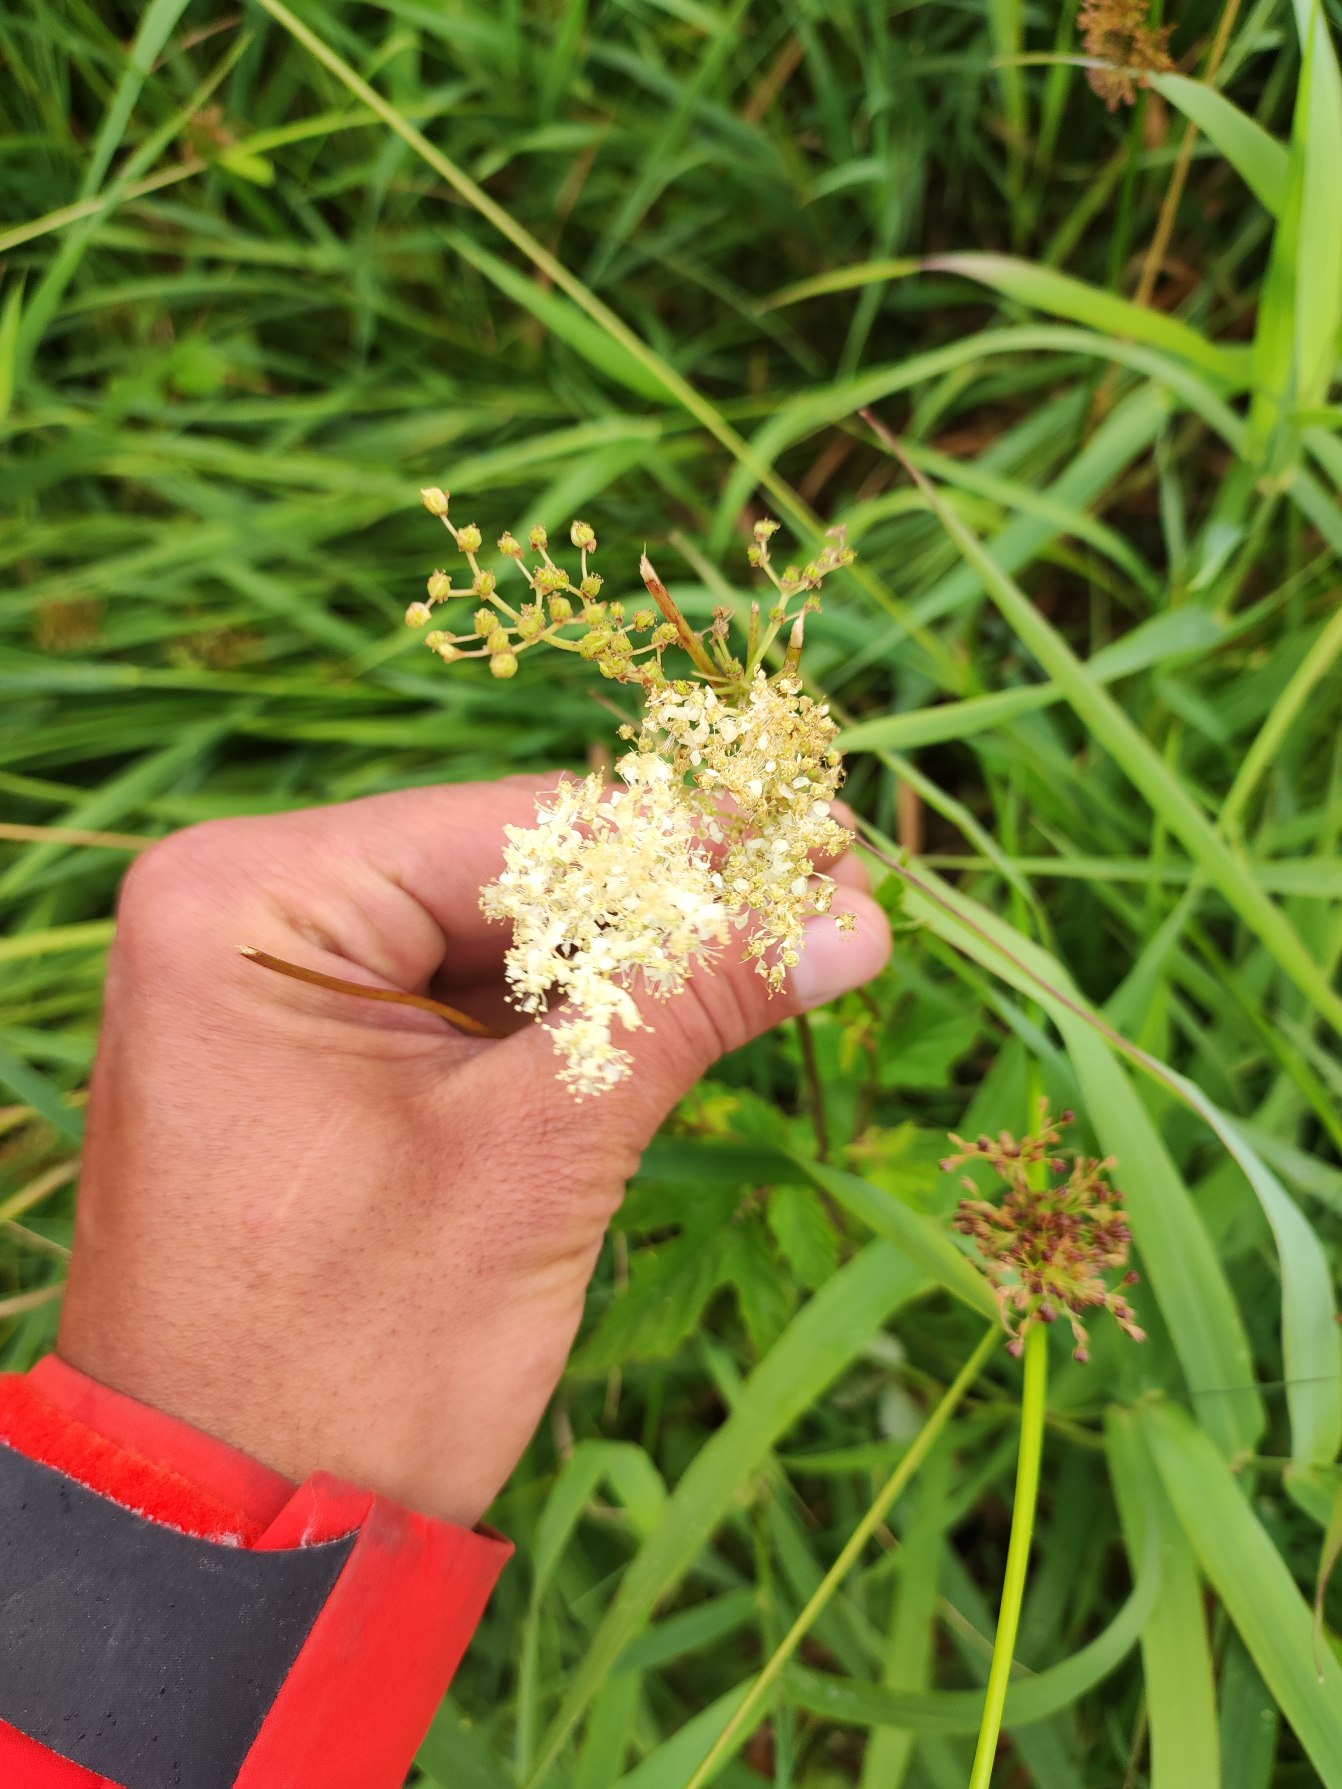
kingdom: Plantae
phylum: Tracheophyta
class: Magnoliopsida
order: Rosales
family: Rosaceae
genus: Filipendula
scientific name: Filipendula ulmaria
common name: Almindelig mjødurt
